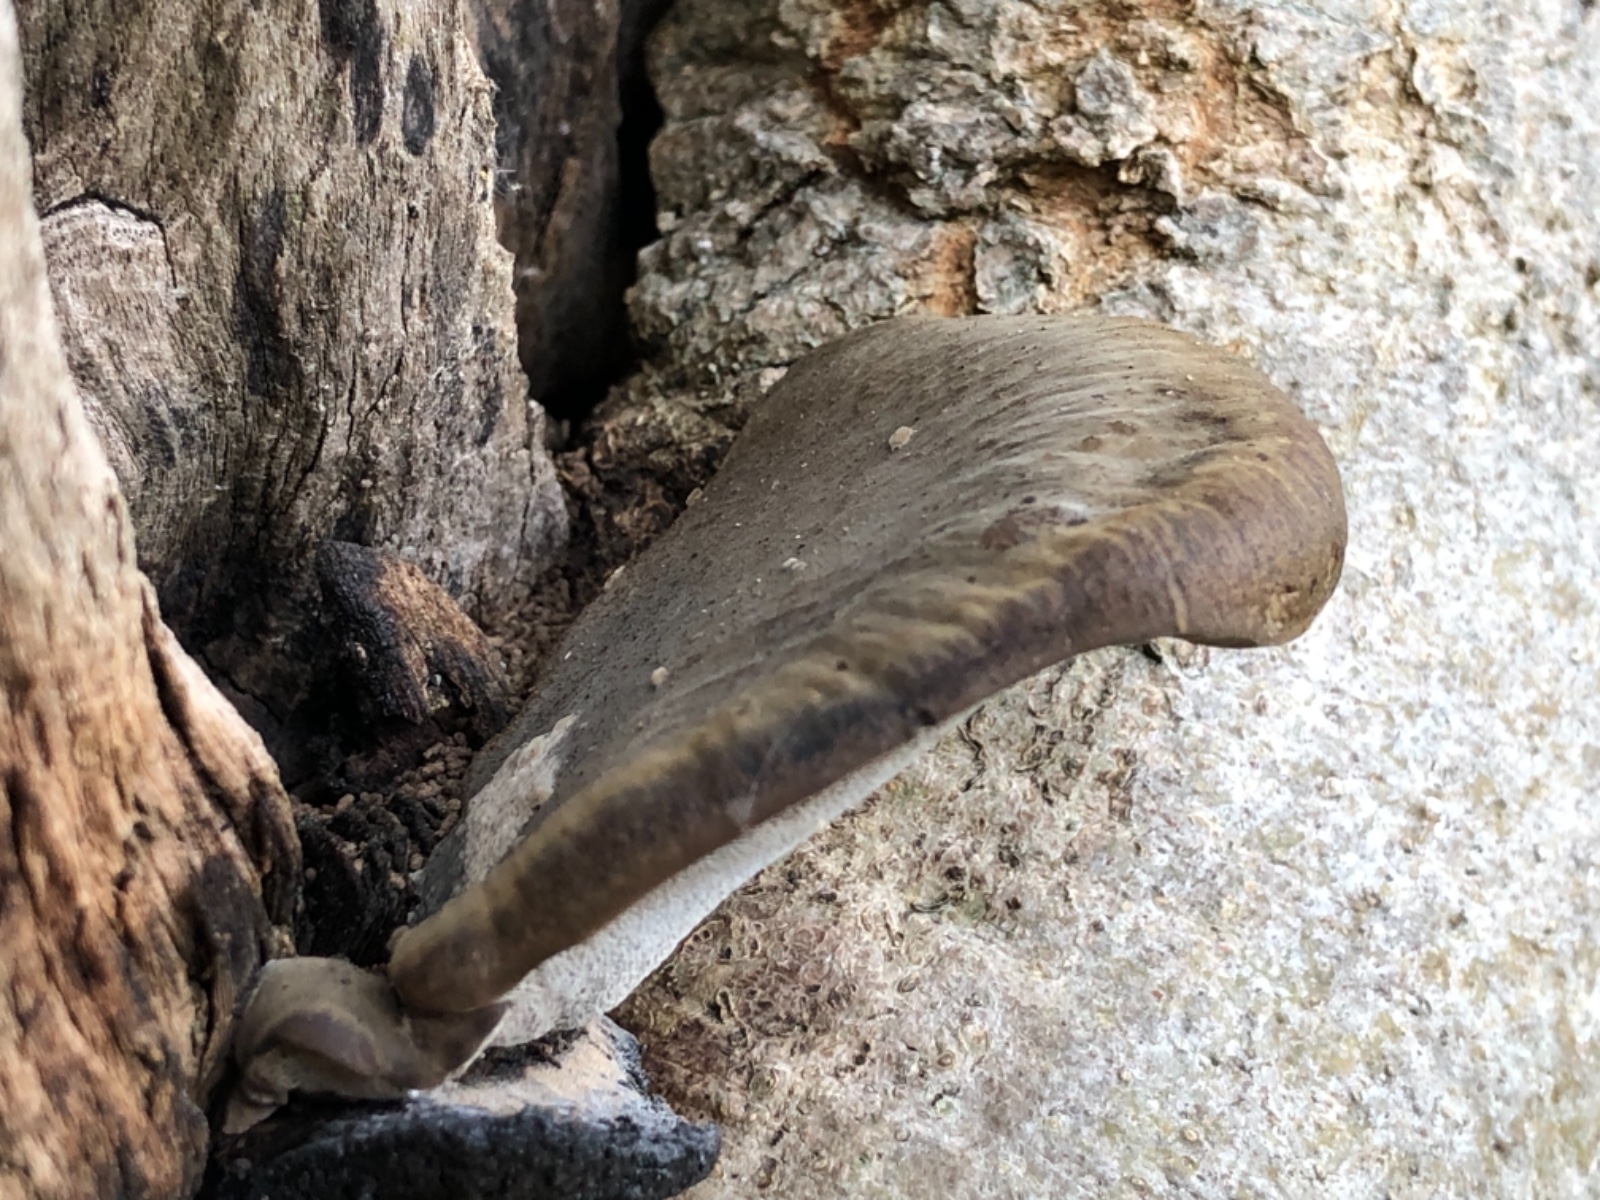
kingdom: Fungi
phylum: Basidiomycota
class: Agaricomycetes
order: Polyporales
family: Polyporaceae
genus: Cerioporus
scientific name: Cerioporus varius
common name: foranderlig stilkporesvamp
